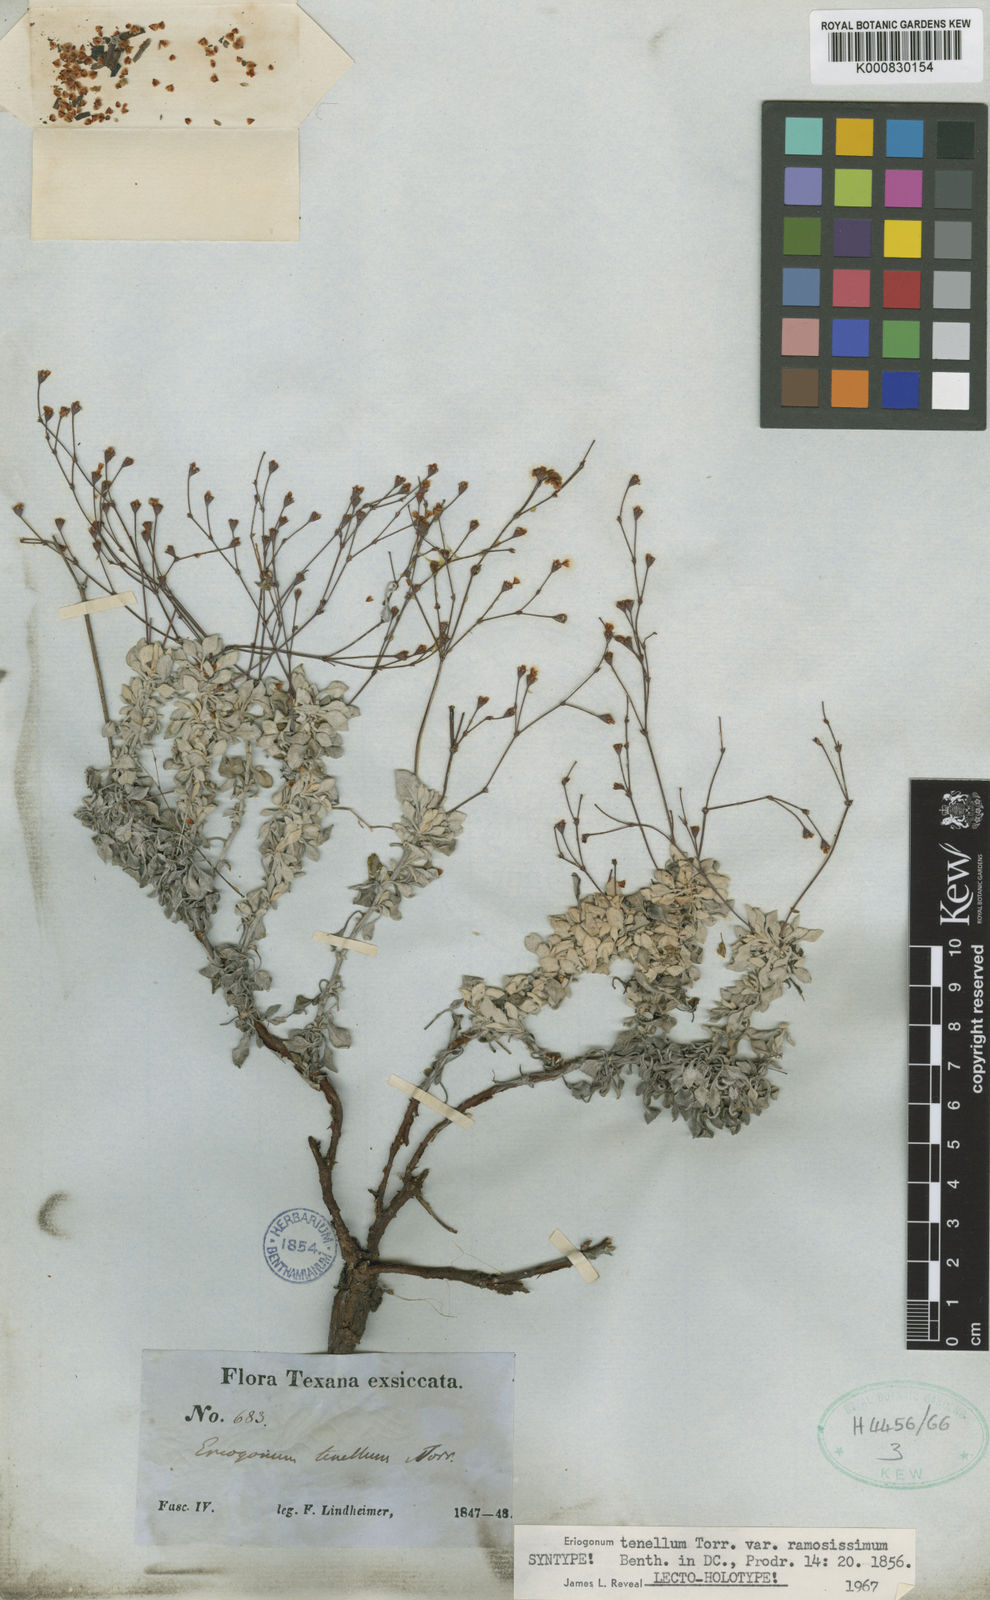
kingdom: Plantae
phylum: Tracheophyta
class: Magnoliopsida
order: Caryophyllales
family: Polygonaceae
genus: Eriogonum
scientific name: Eriogonum graniticum
